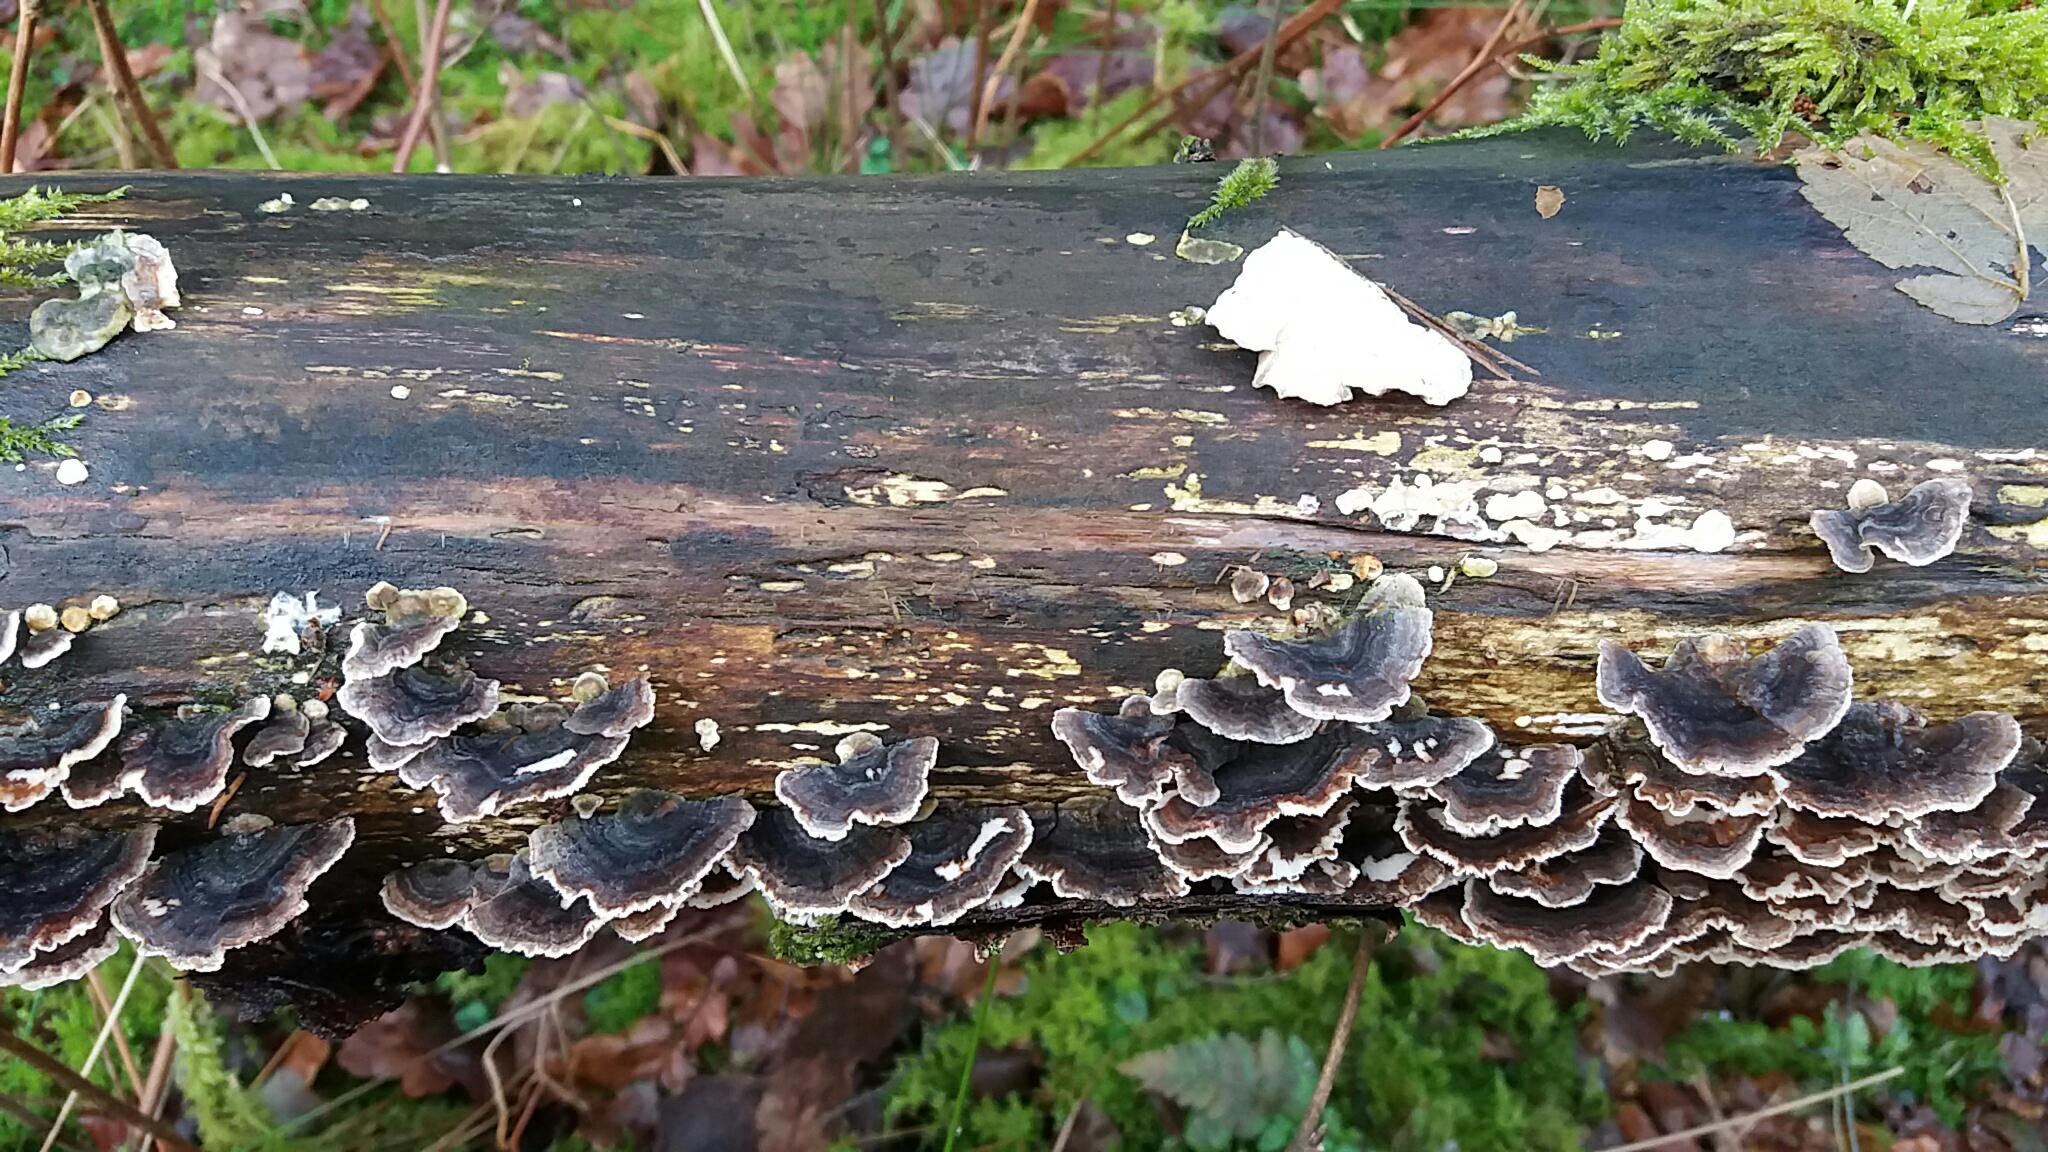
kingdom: Fungi
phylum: Basidiomycota
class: Agaricomycetes
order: Polyporales
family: Polyporaceae
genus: Trametes
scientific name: Trametes versicolor
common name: broget læderporesvamp
